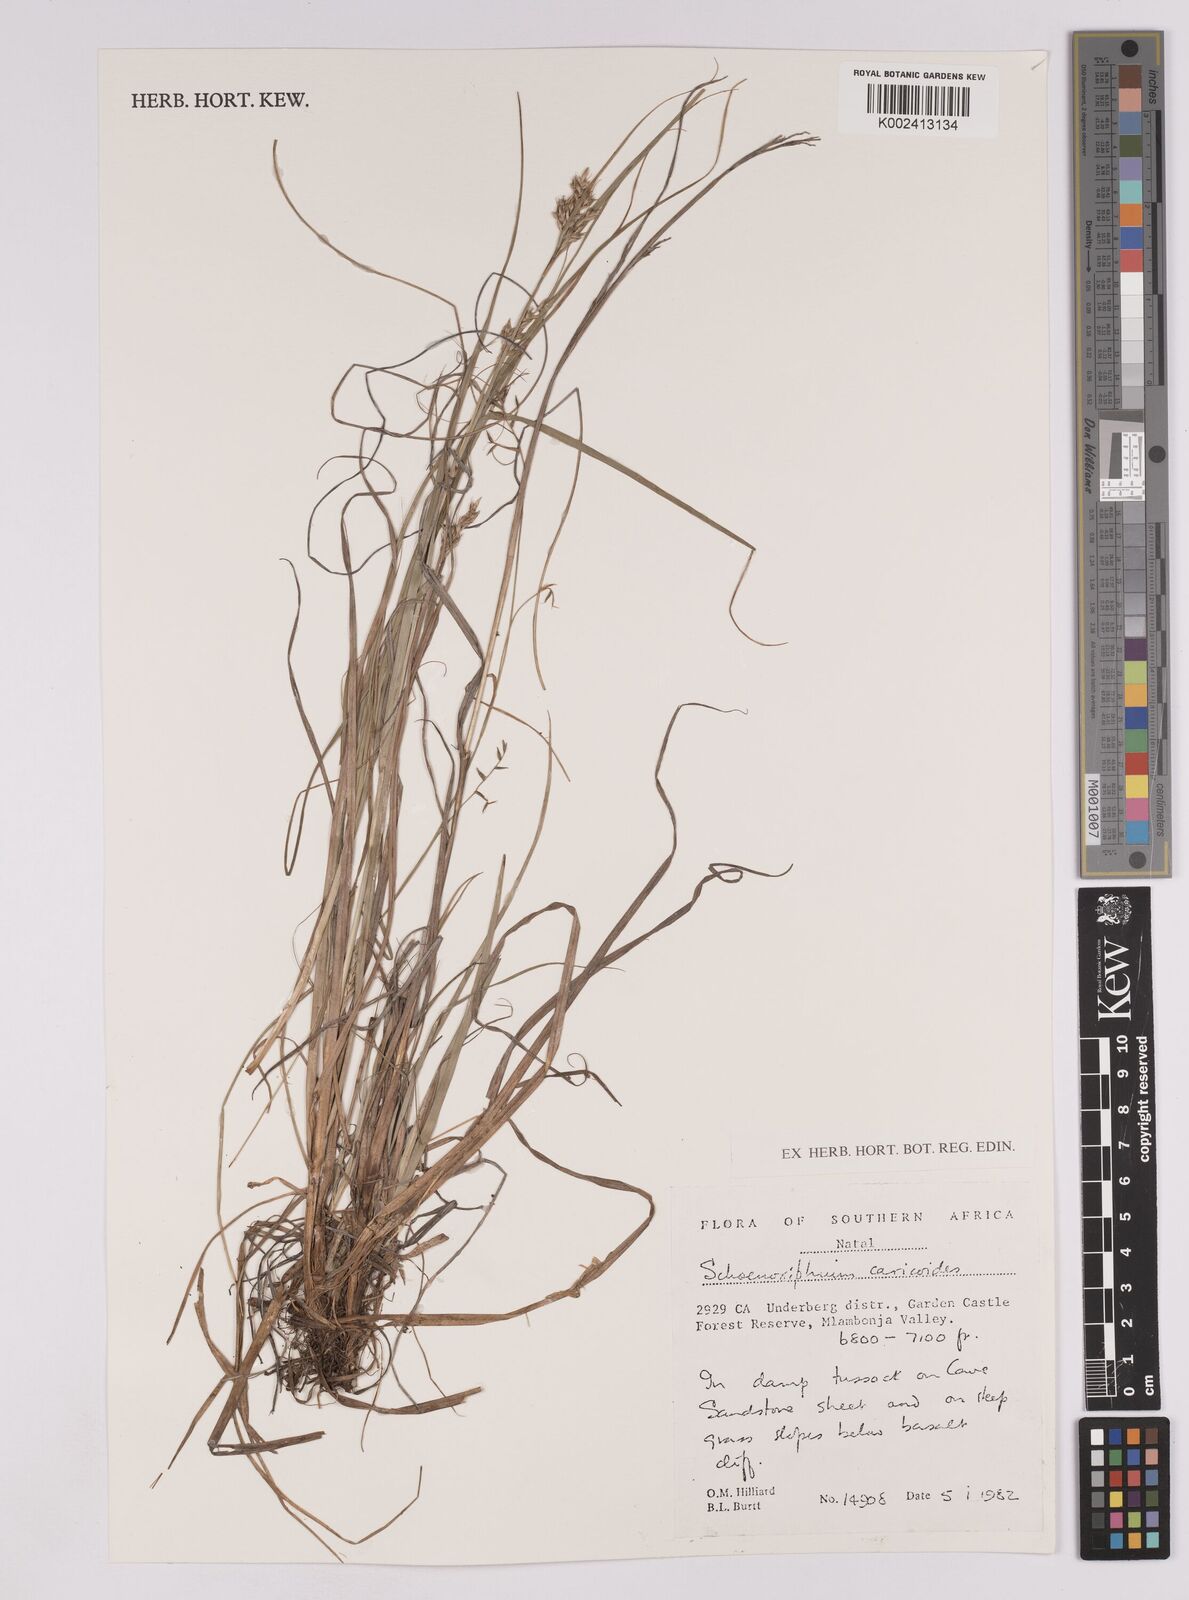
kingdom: Plantae
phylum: Tracheophyta
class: Liliopsida
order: Poales
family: Cyperaceae
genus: Carex
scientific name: Carex spartea
